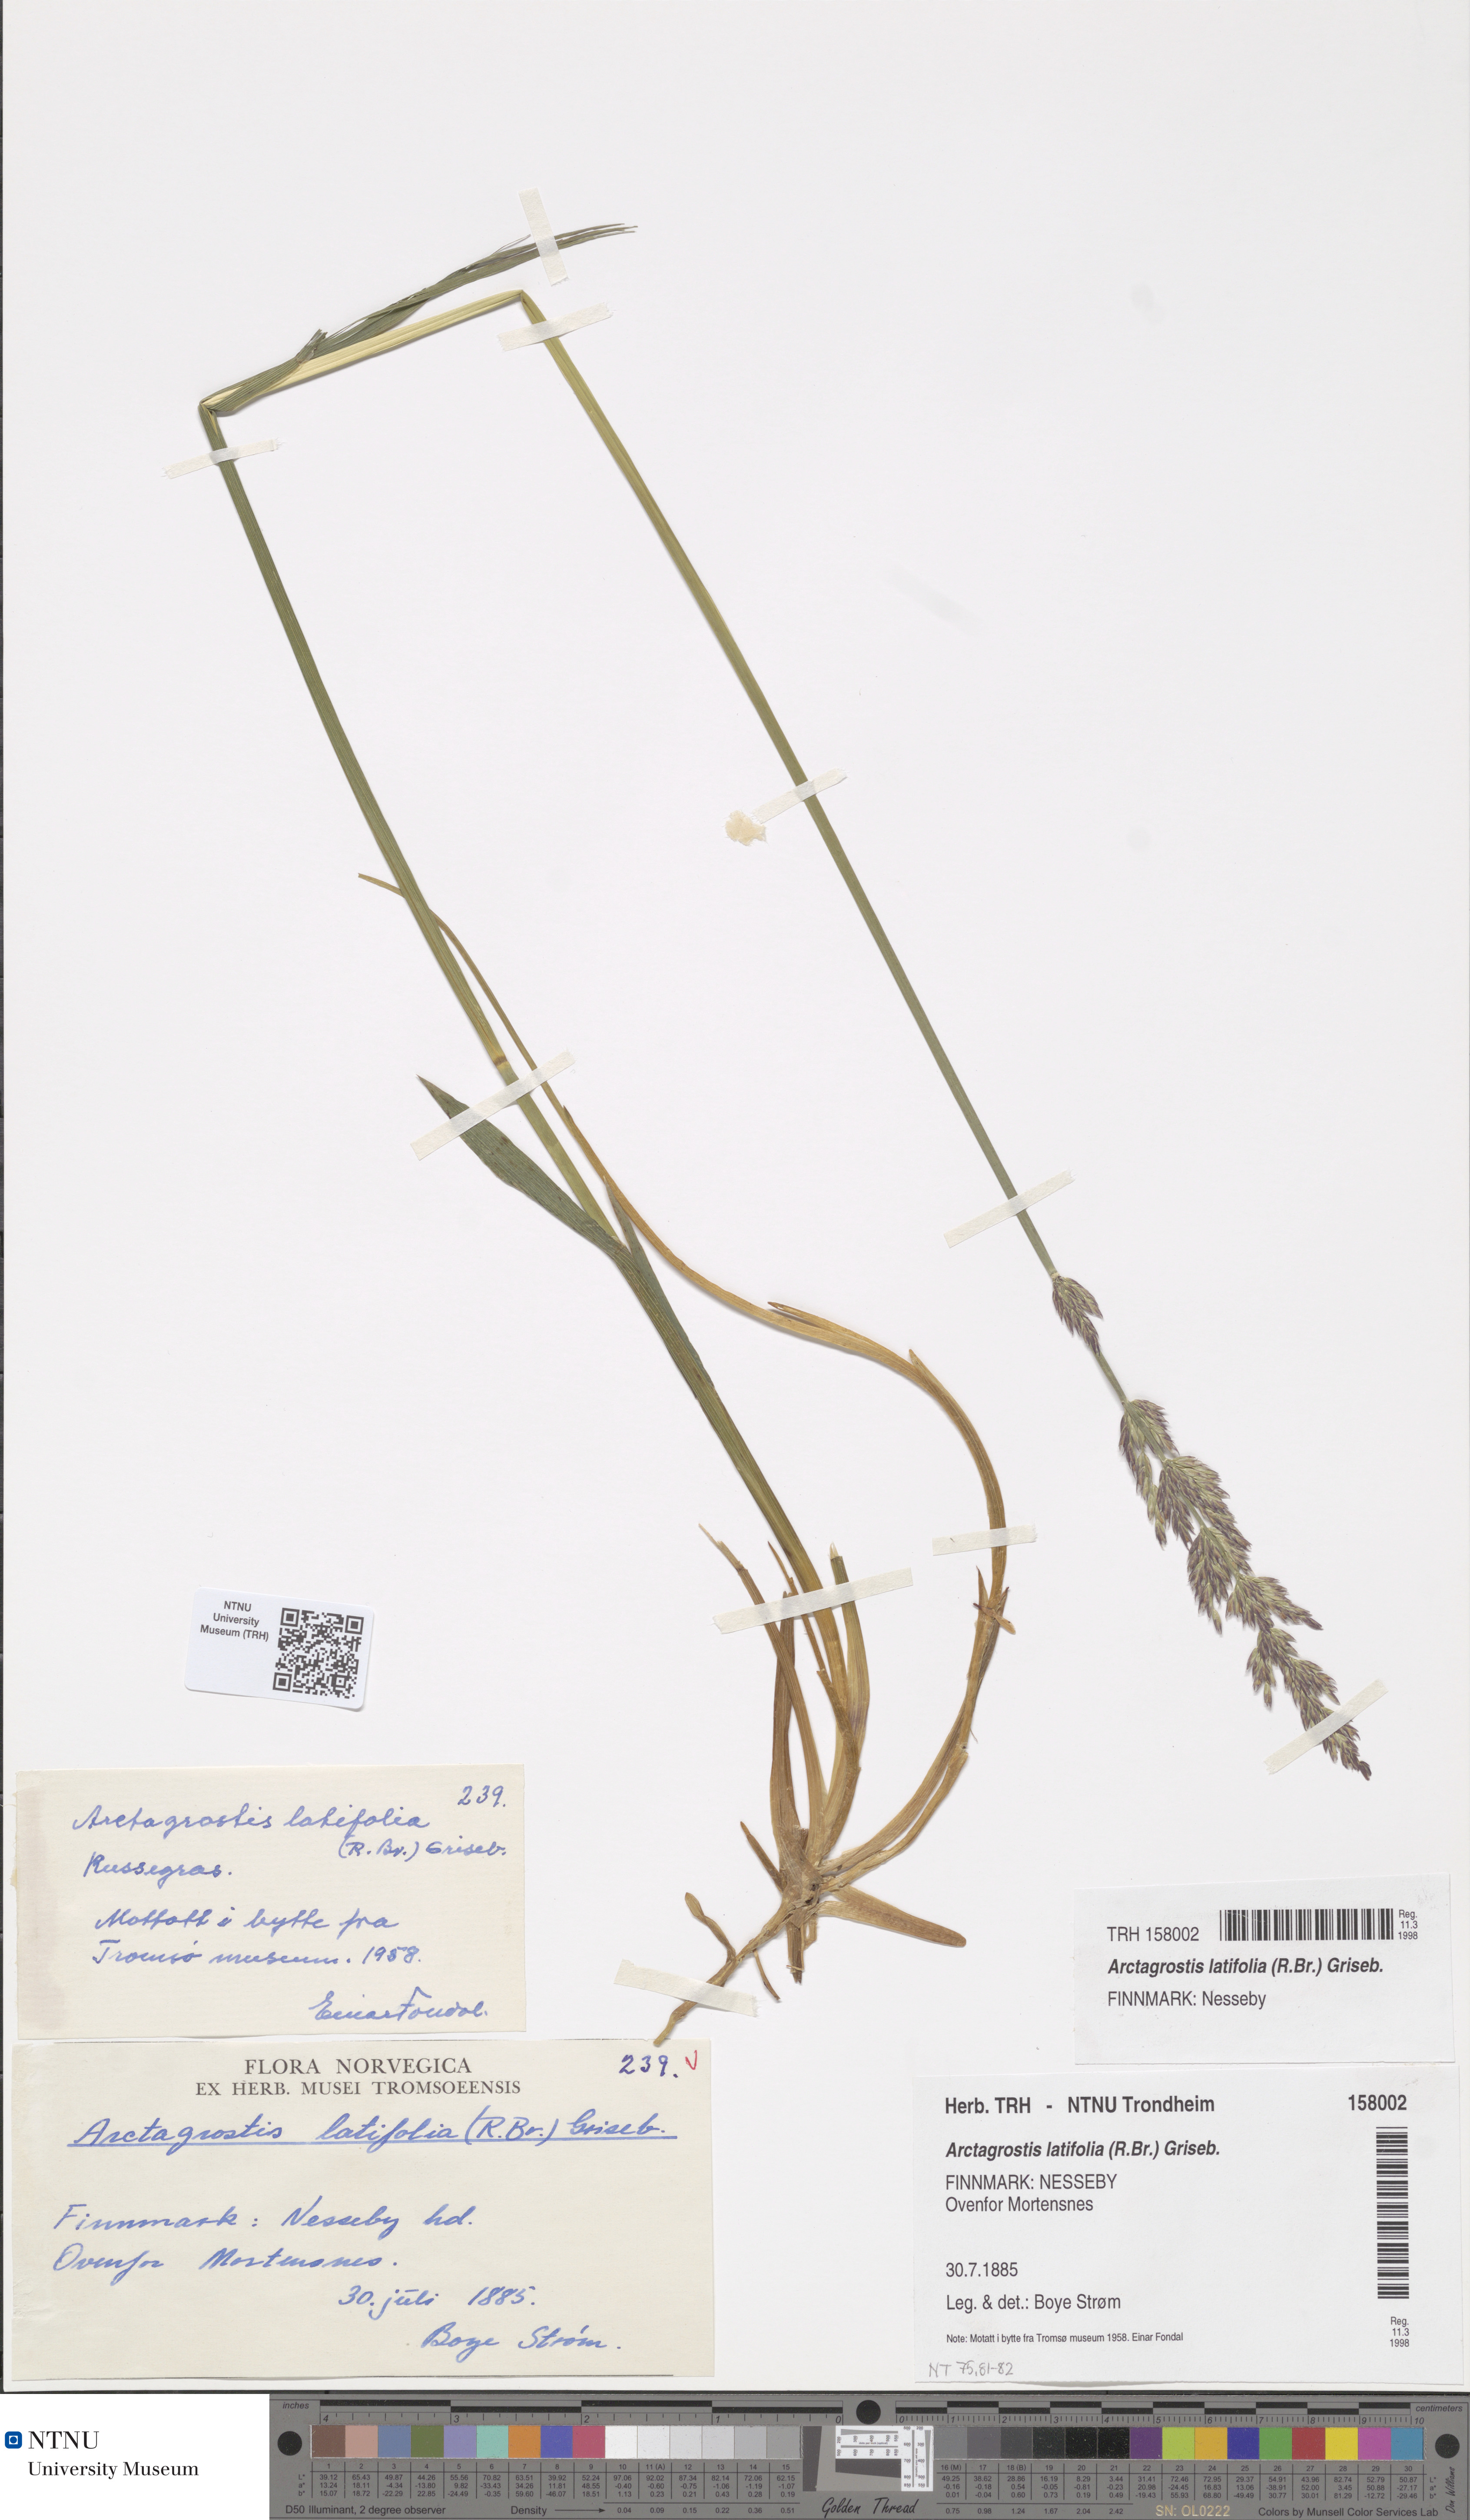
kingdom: Plantae
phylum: Tracheophyta
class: Liliopsida
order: Poales
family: Poaceae
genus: Arctagrostis
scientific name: Arctagrostis latifolia
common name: Arctic grass
